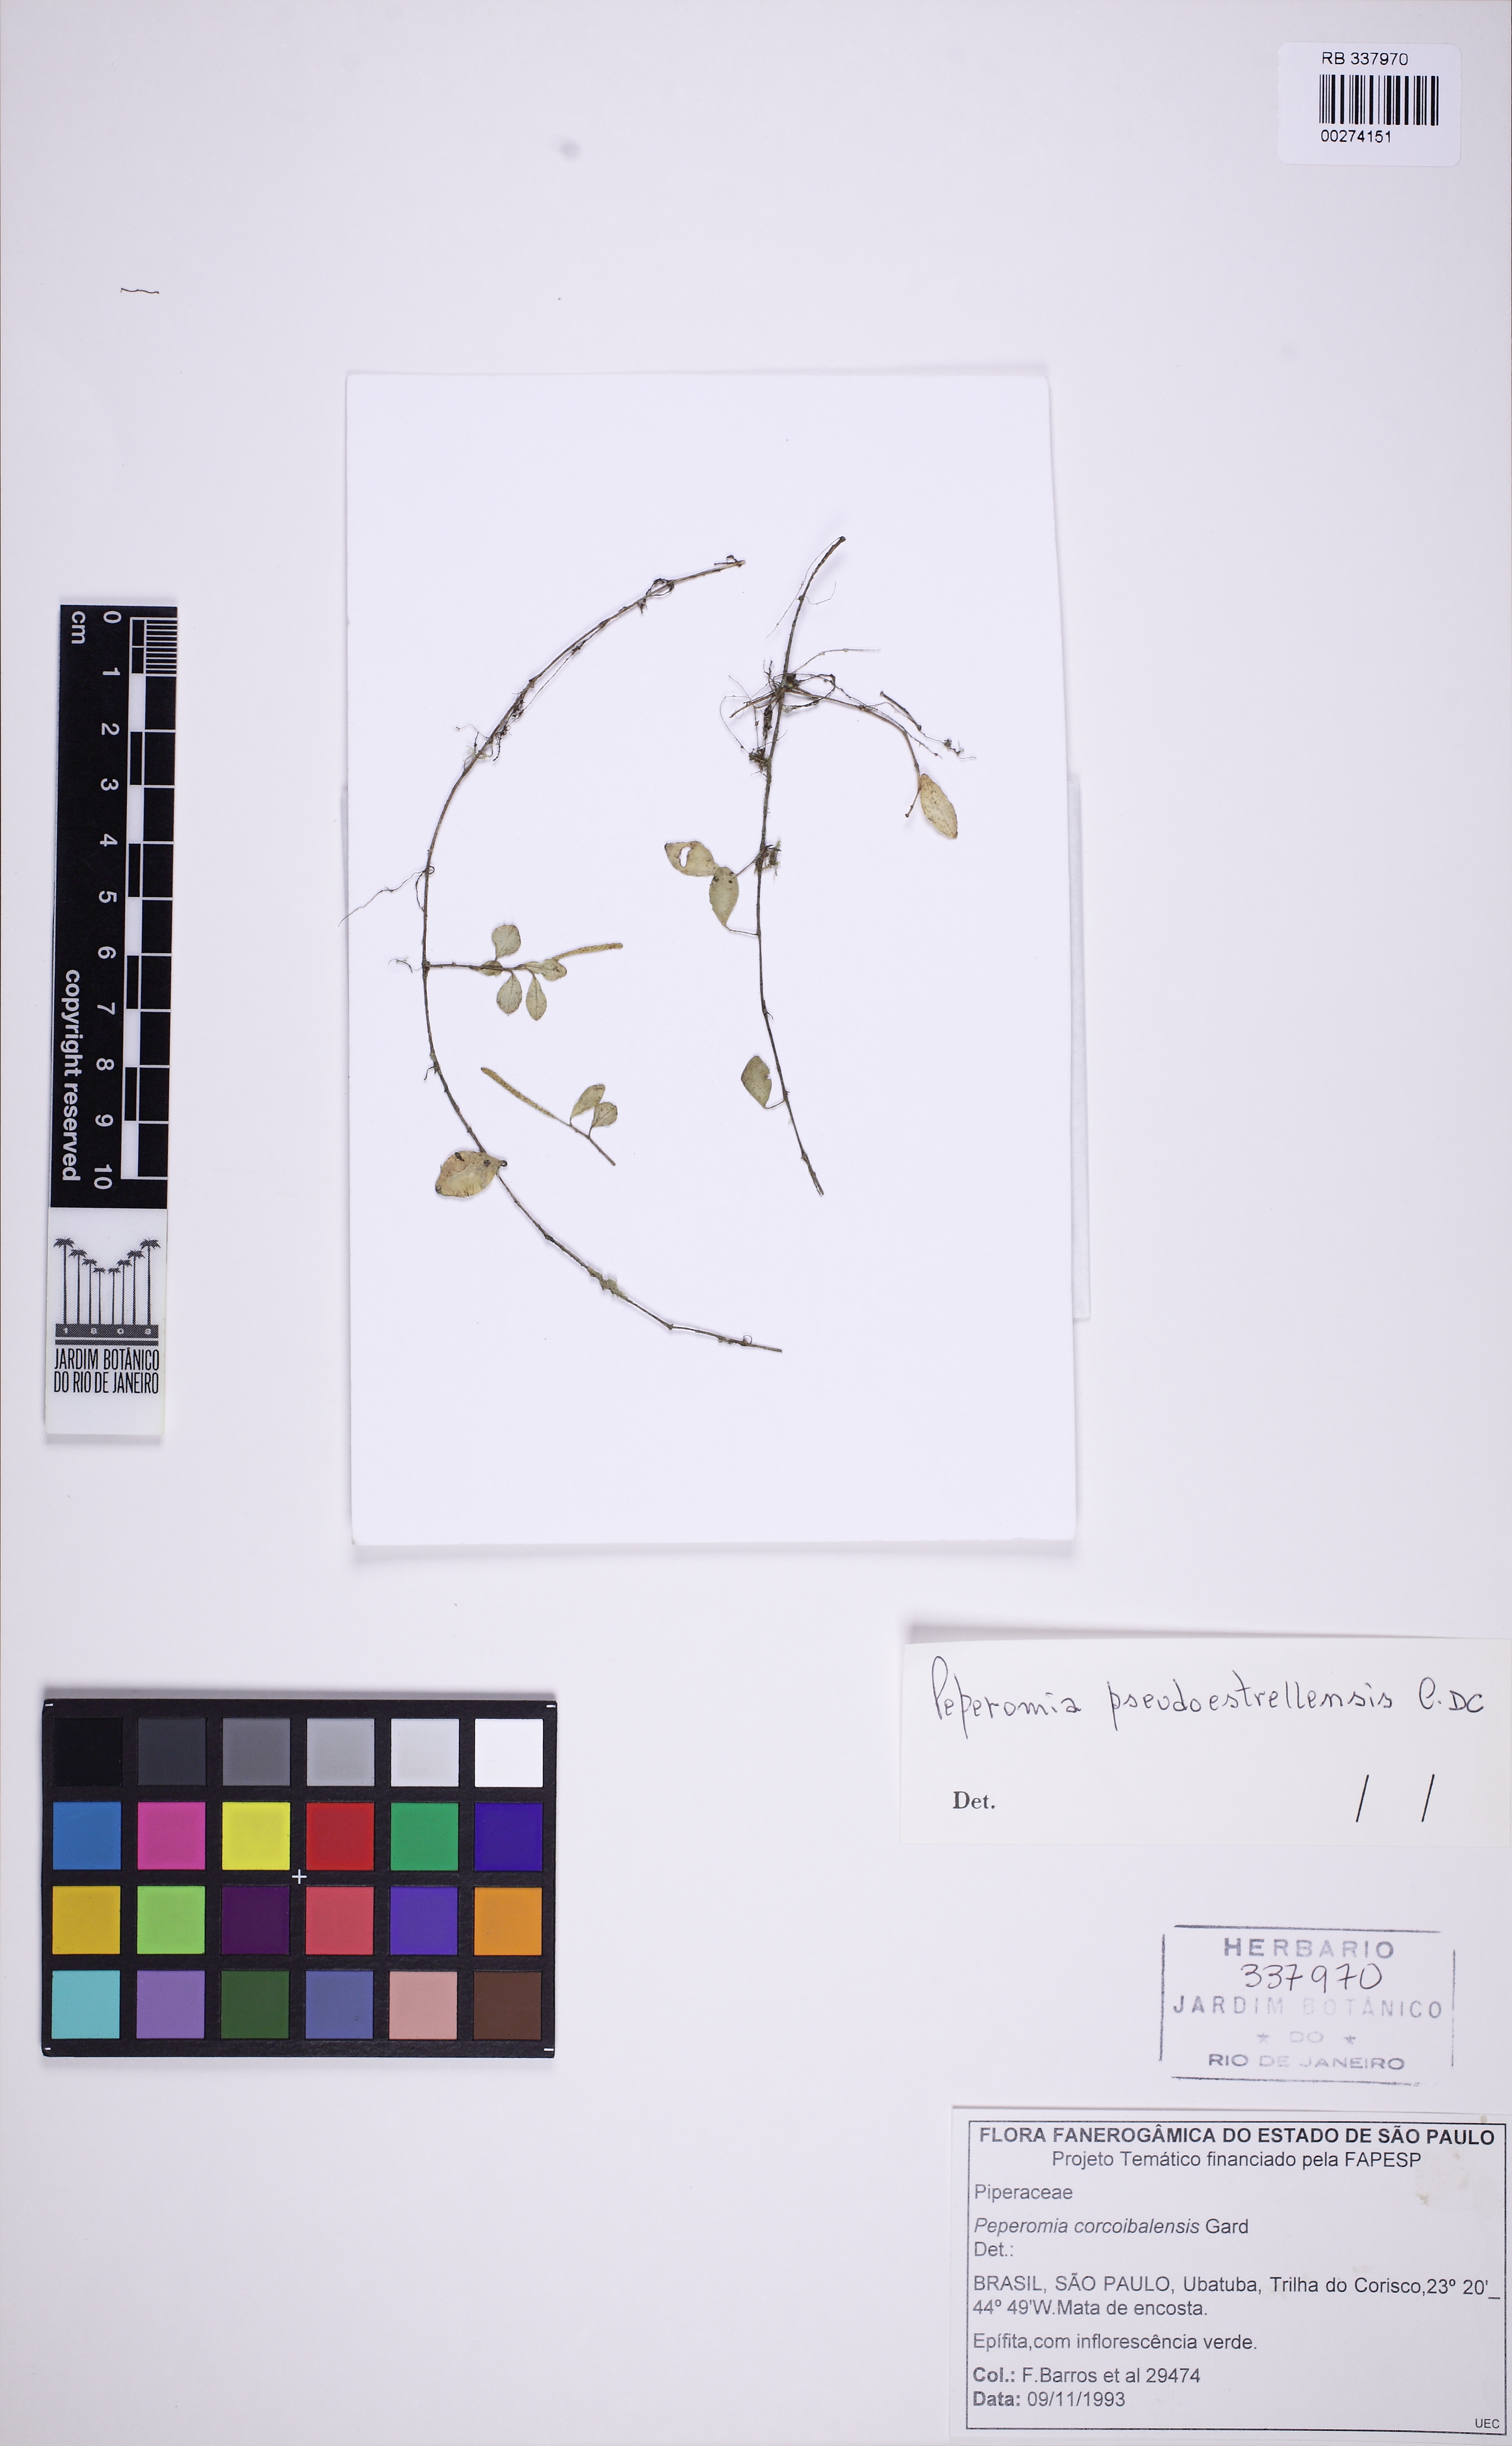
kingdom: Plantae
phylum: Tracheophyta
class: Magnoliopsida
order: Piperales
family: Piperaceae
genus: Peperomia
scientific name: Peperomia pseudoestrellensis
